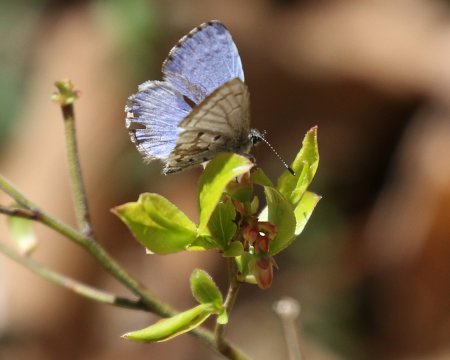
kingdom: Animalia
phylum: Arthropoda
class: Insecta
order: Lepidoptera
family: Lycaenidae
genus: Celastrina
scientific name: Celastrina ladon
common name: Spring Azure
